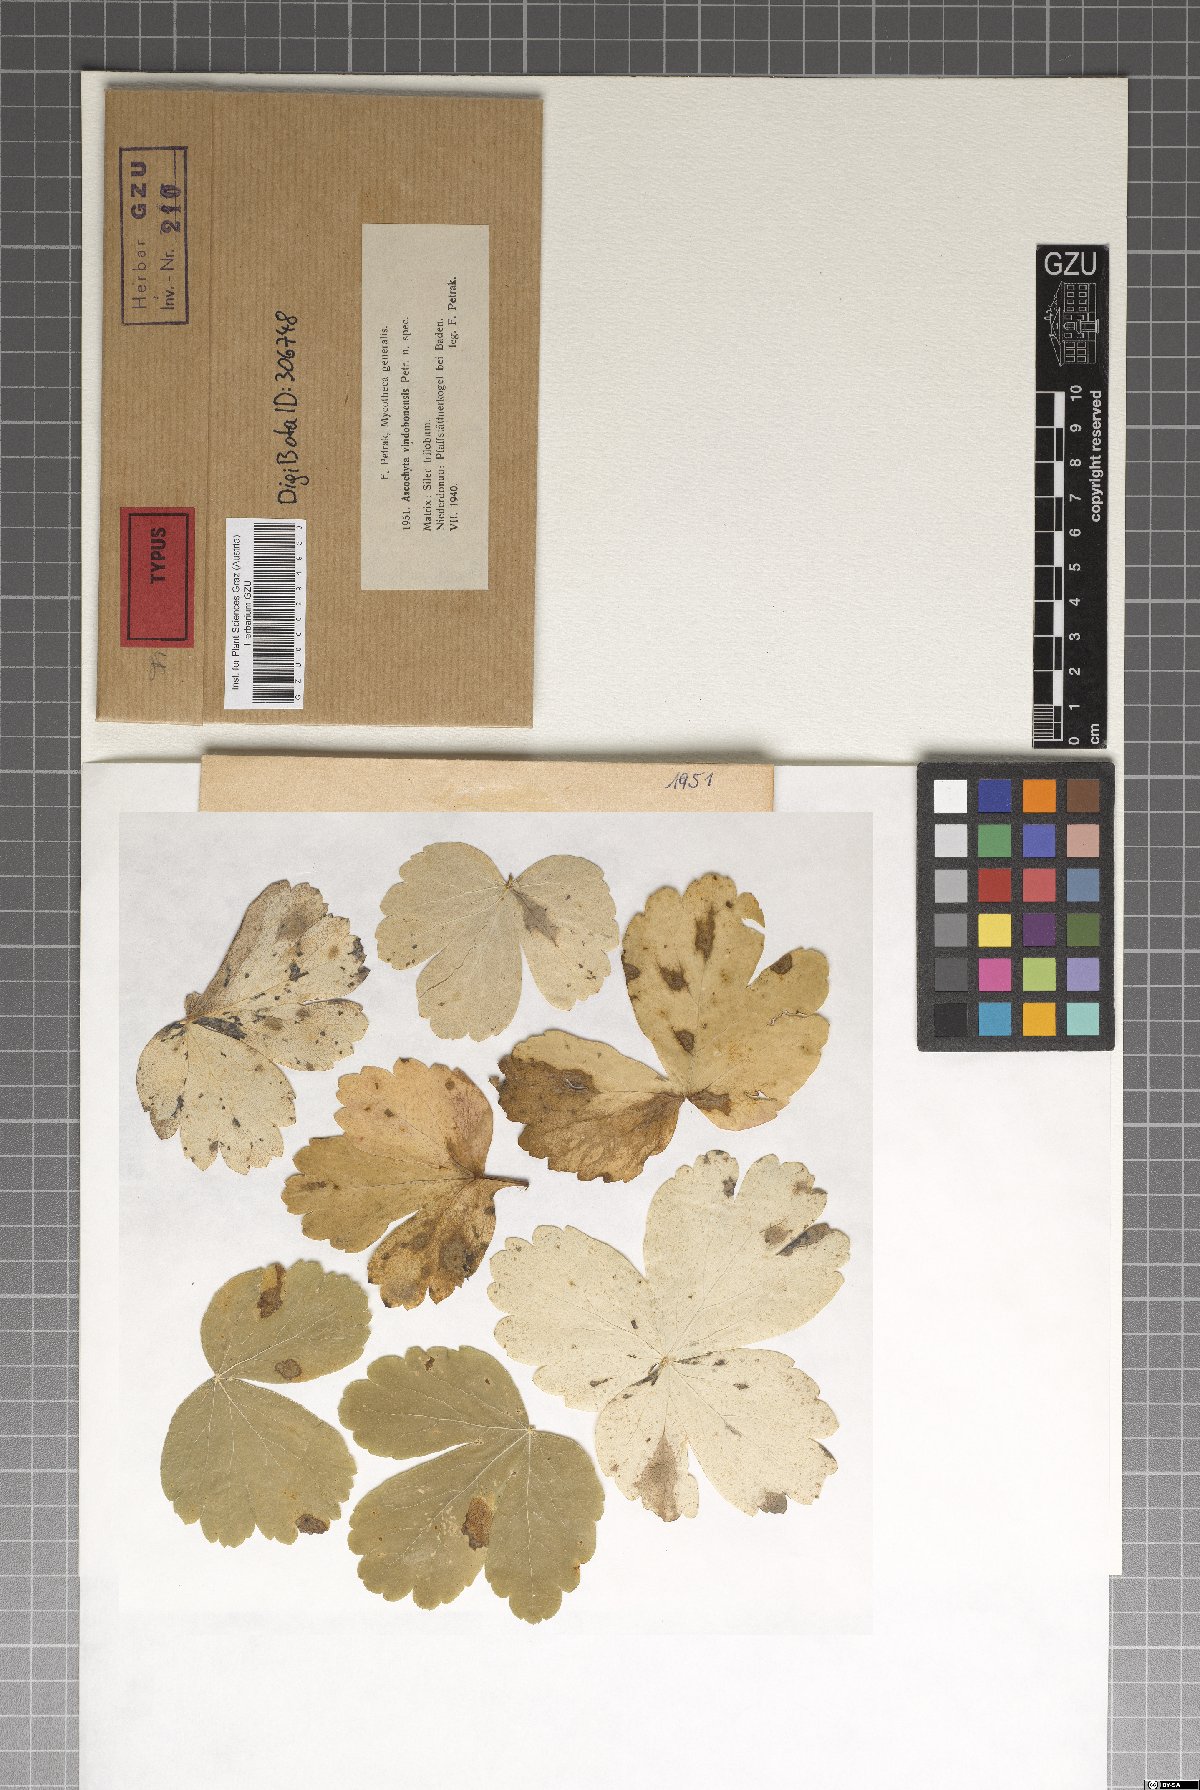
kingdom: Fungi
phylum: Ascomycota
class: Dothideomycetes
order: Pleosporales
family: Didymellaceae
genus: Ascochyta
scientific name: Ascochyta vindobonensis
